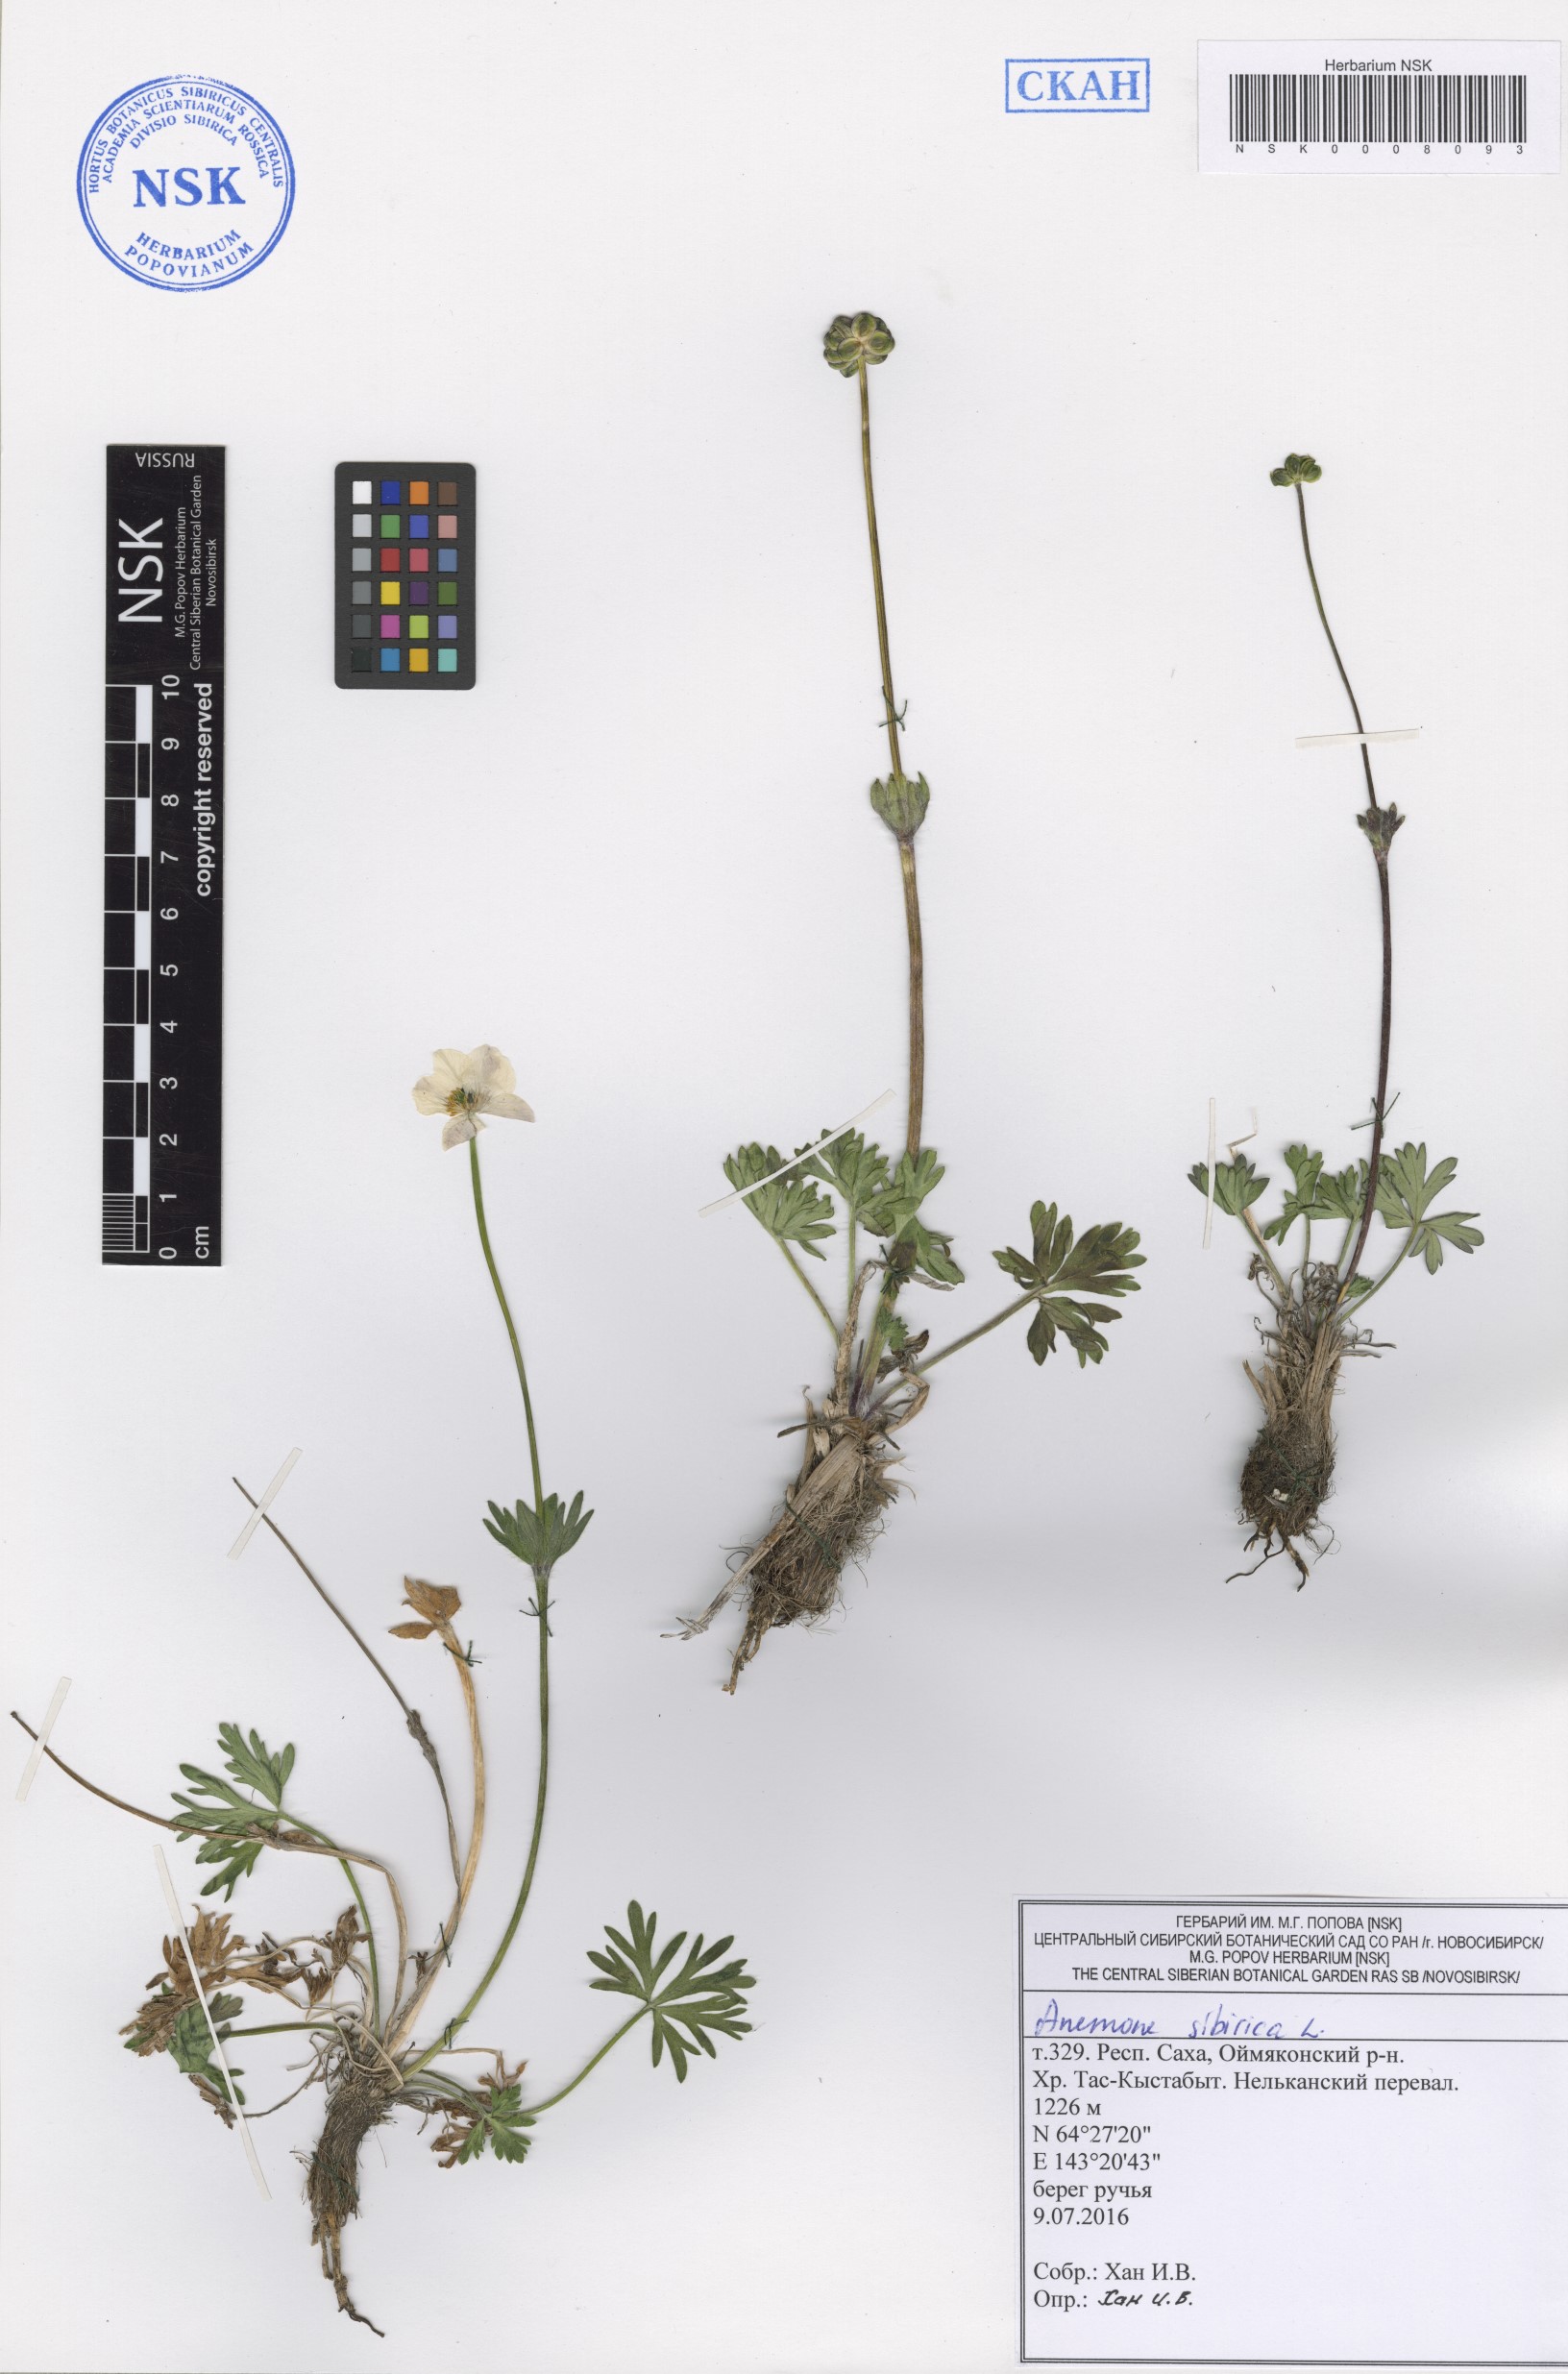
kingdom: Plantae
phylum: Tracheophyta
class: Magnoliopsida
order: Ranunculales
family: Ranunculaceae
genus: Anemonastrum
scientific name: Anemonastrum narcissiflorum
